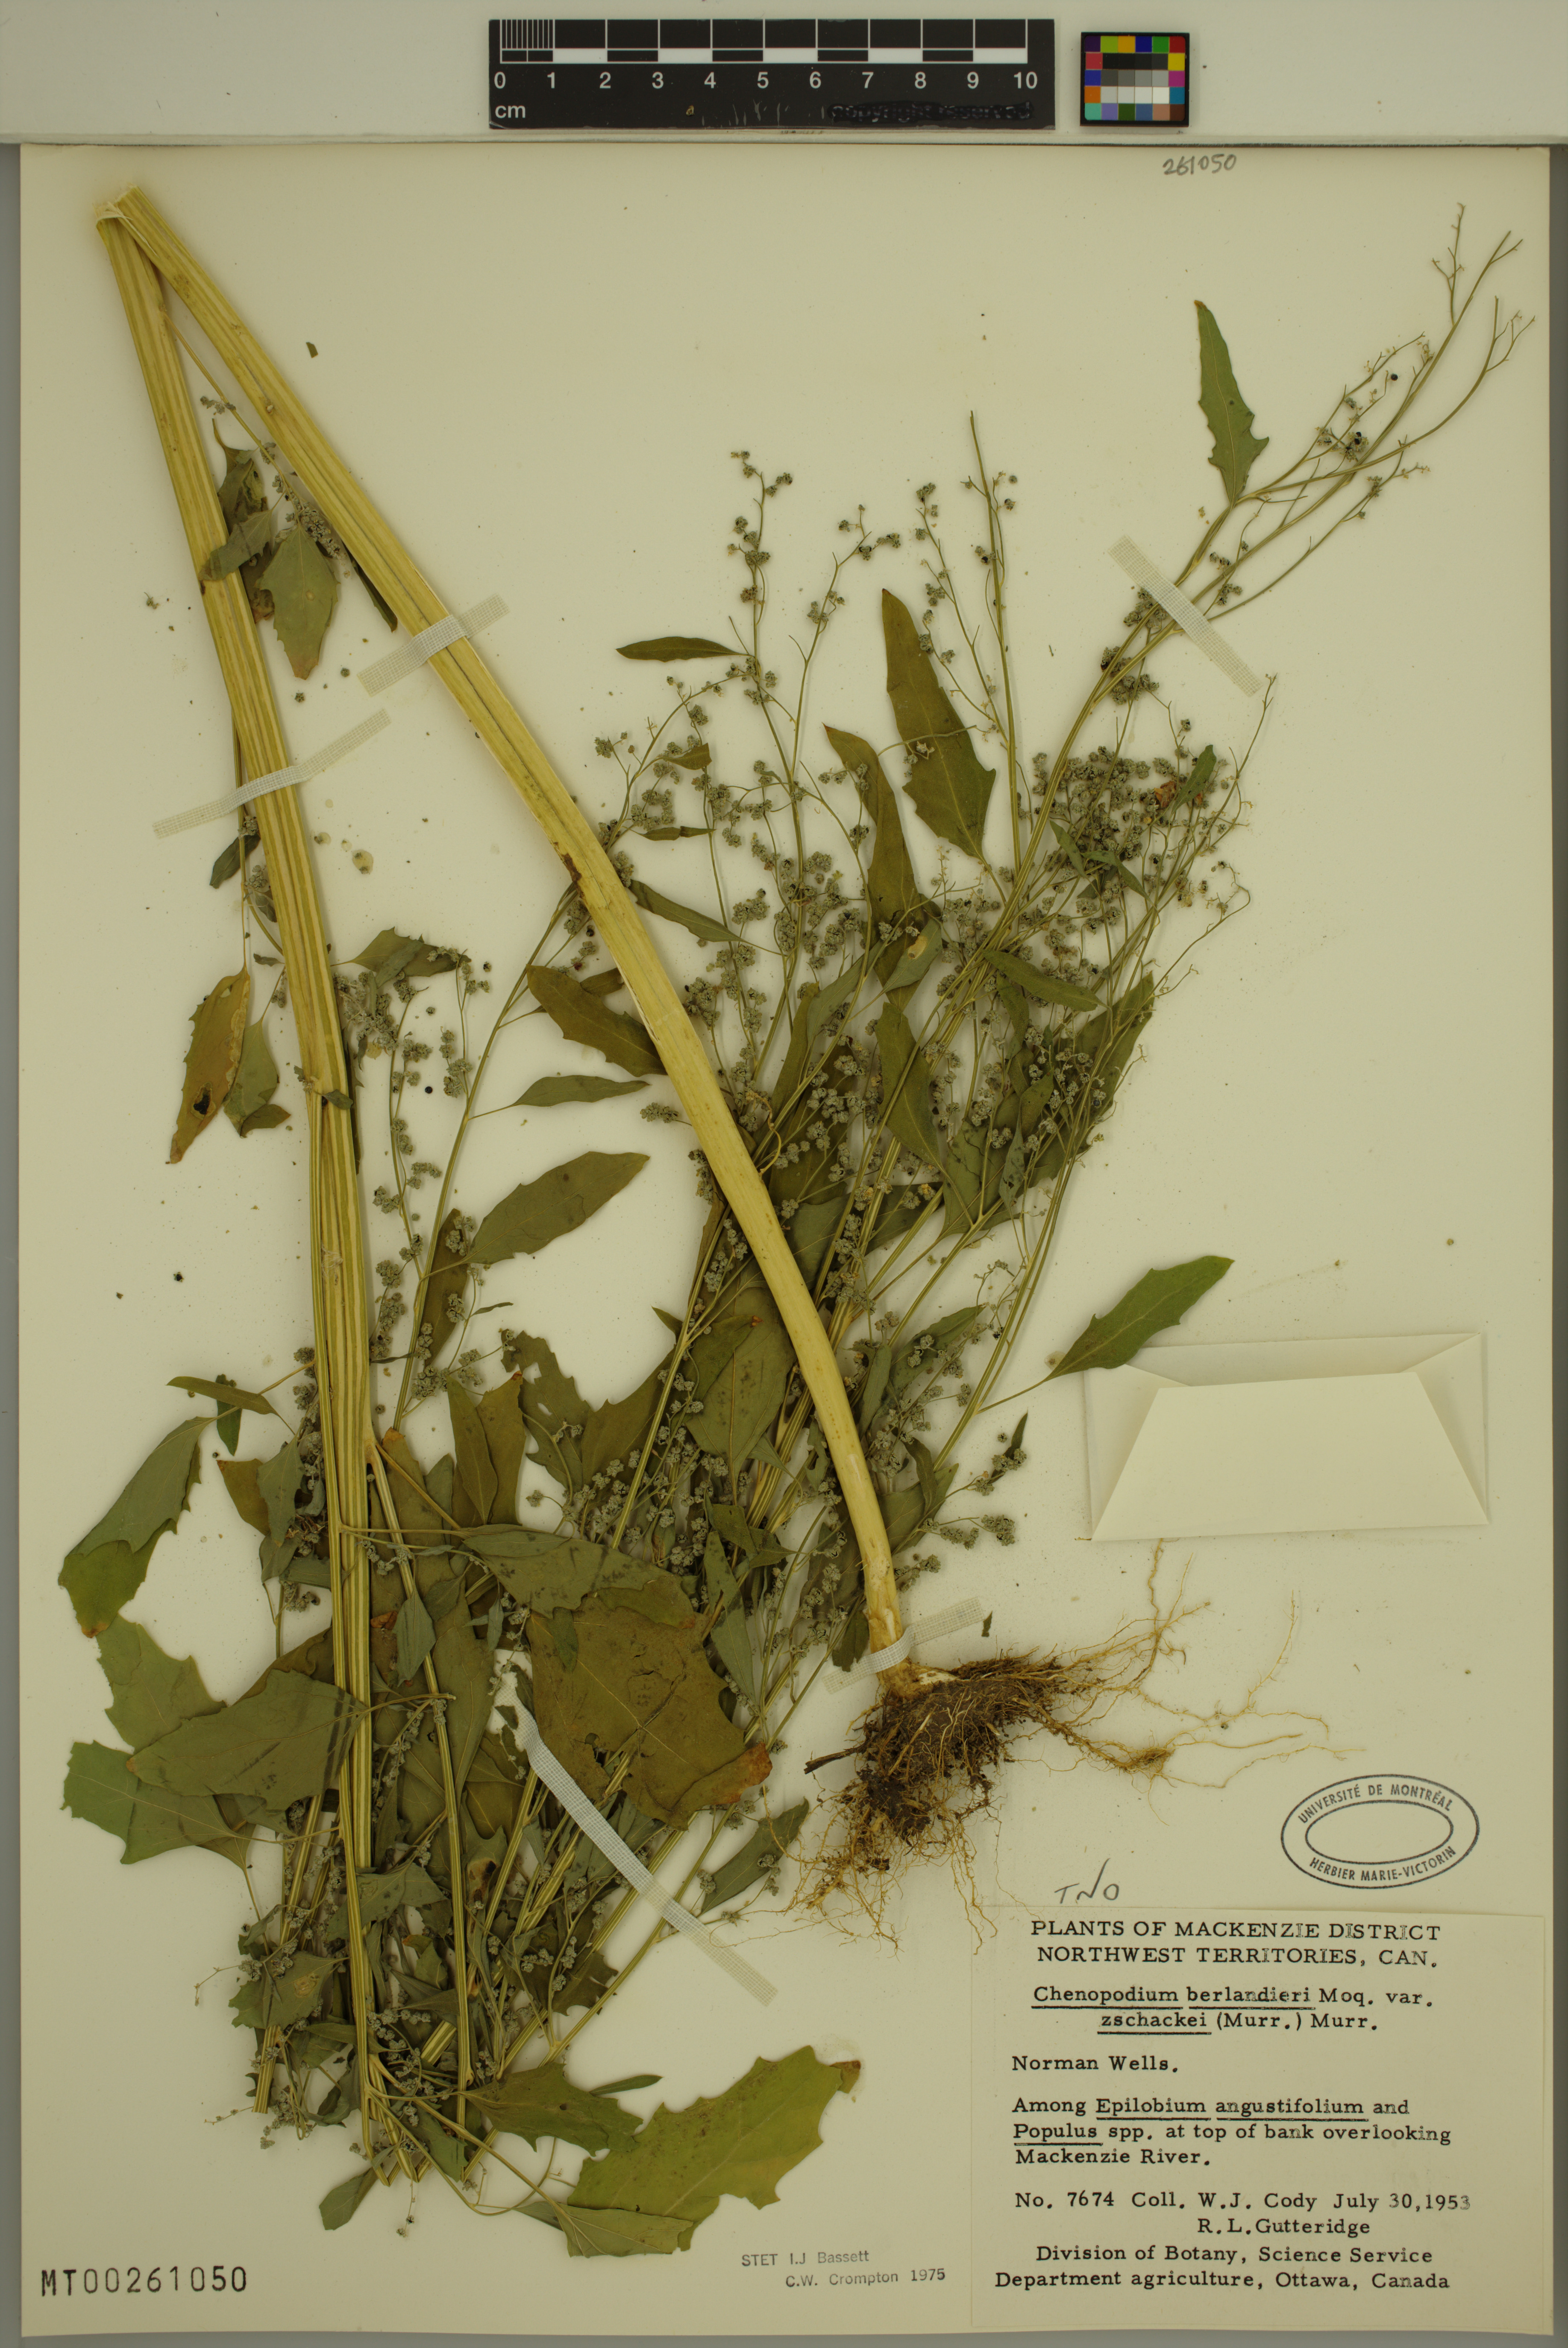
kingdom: Plantae
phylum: Tracheophyta
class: Magnoliopsida
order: Caryophyllales
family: Amaranthaceae
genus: Chenopodium
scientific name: Chenopodium berlandieri
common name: Pit-seed goosefoot
